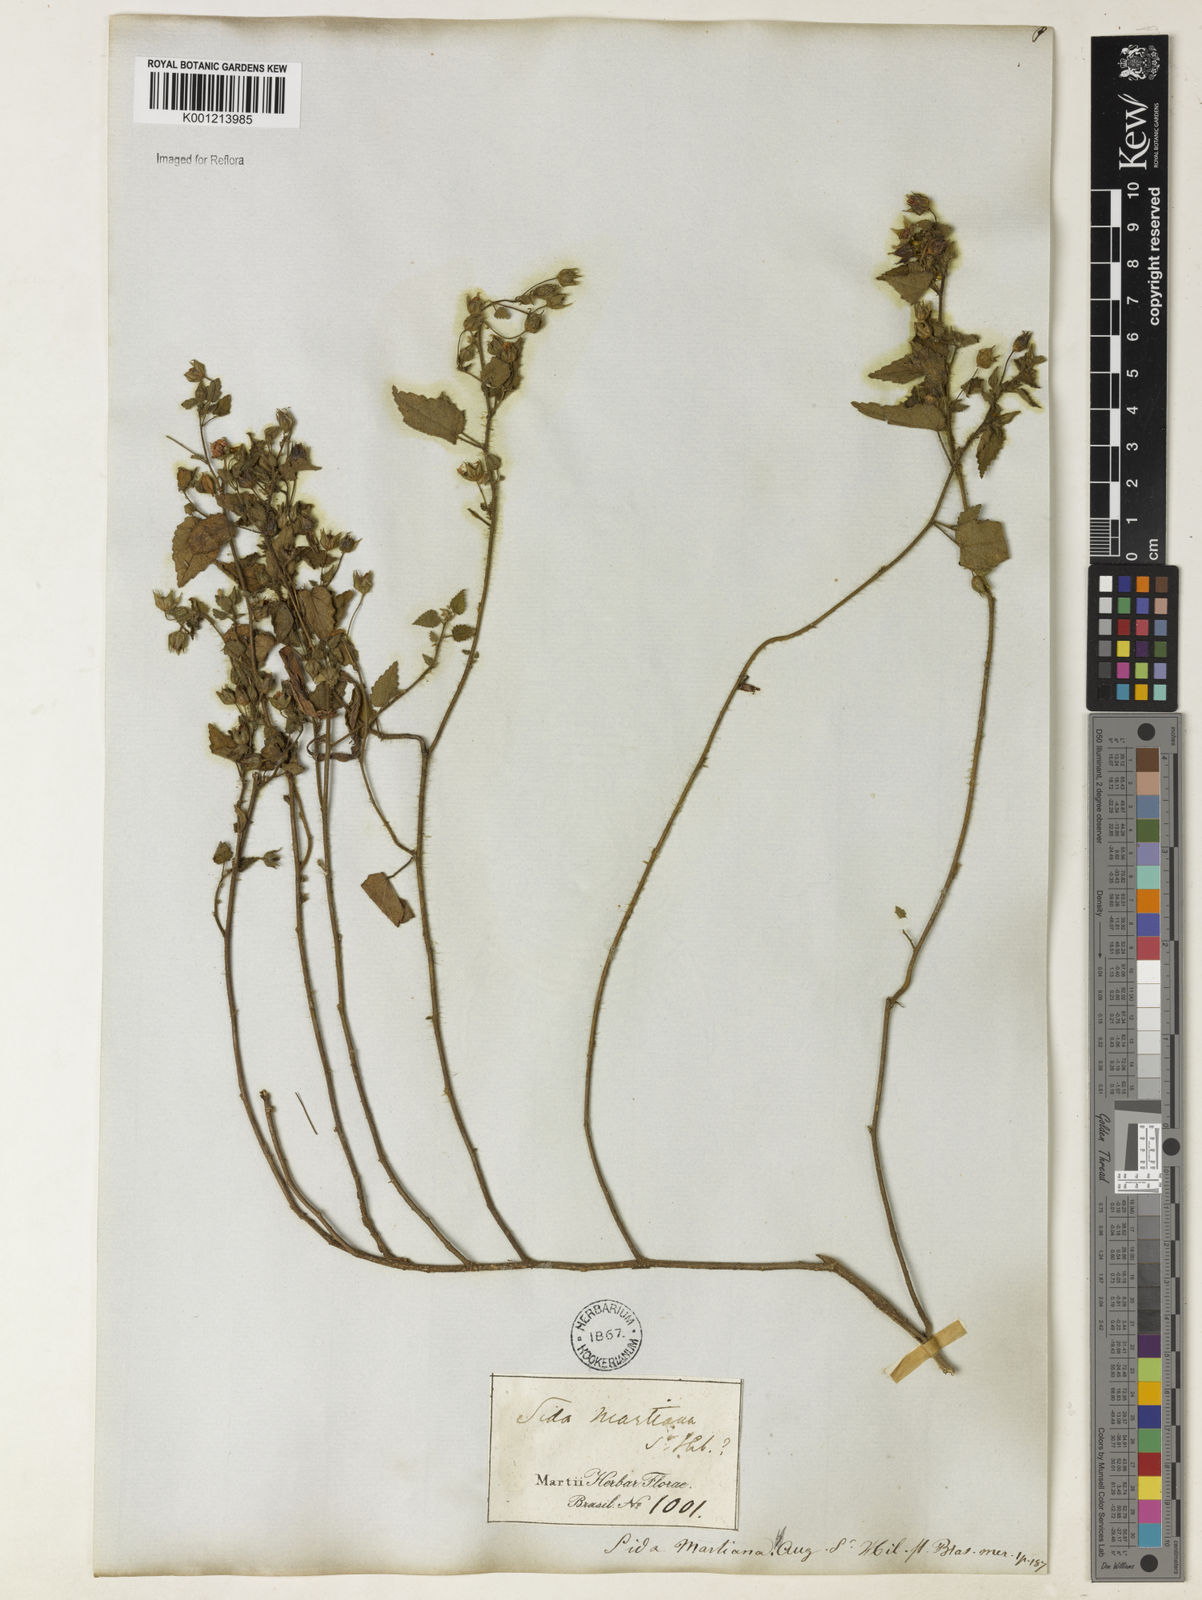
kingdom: Plantae
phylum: Tracheophyta
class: Magnoliopsida
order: Malvales
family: Malvaceae
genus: Sida
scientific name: Sida aurantiaca
